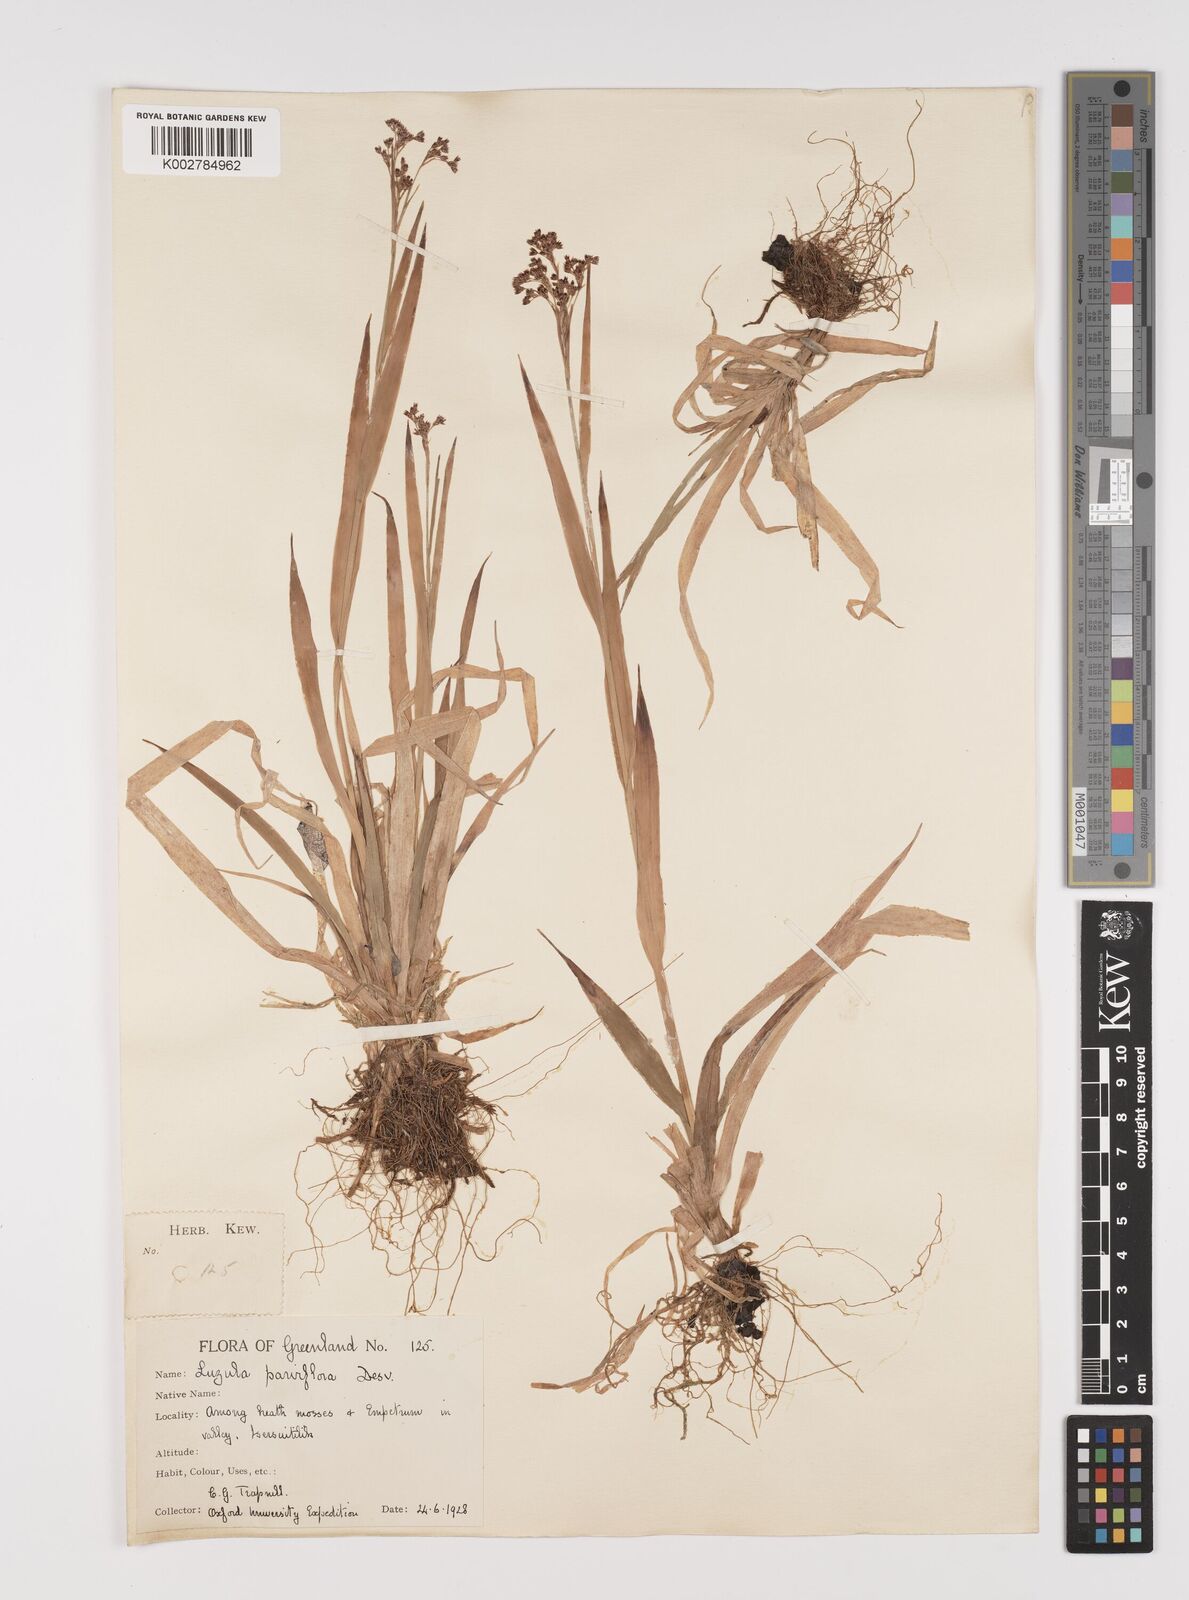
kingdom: Plantae
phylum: Tracheophyta
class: Liliopsida
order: Poales
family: Juncaceae
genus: Luzula
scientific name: Luzula parviflora
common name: Millet woodrush
